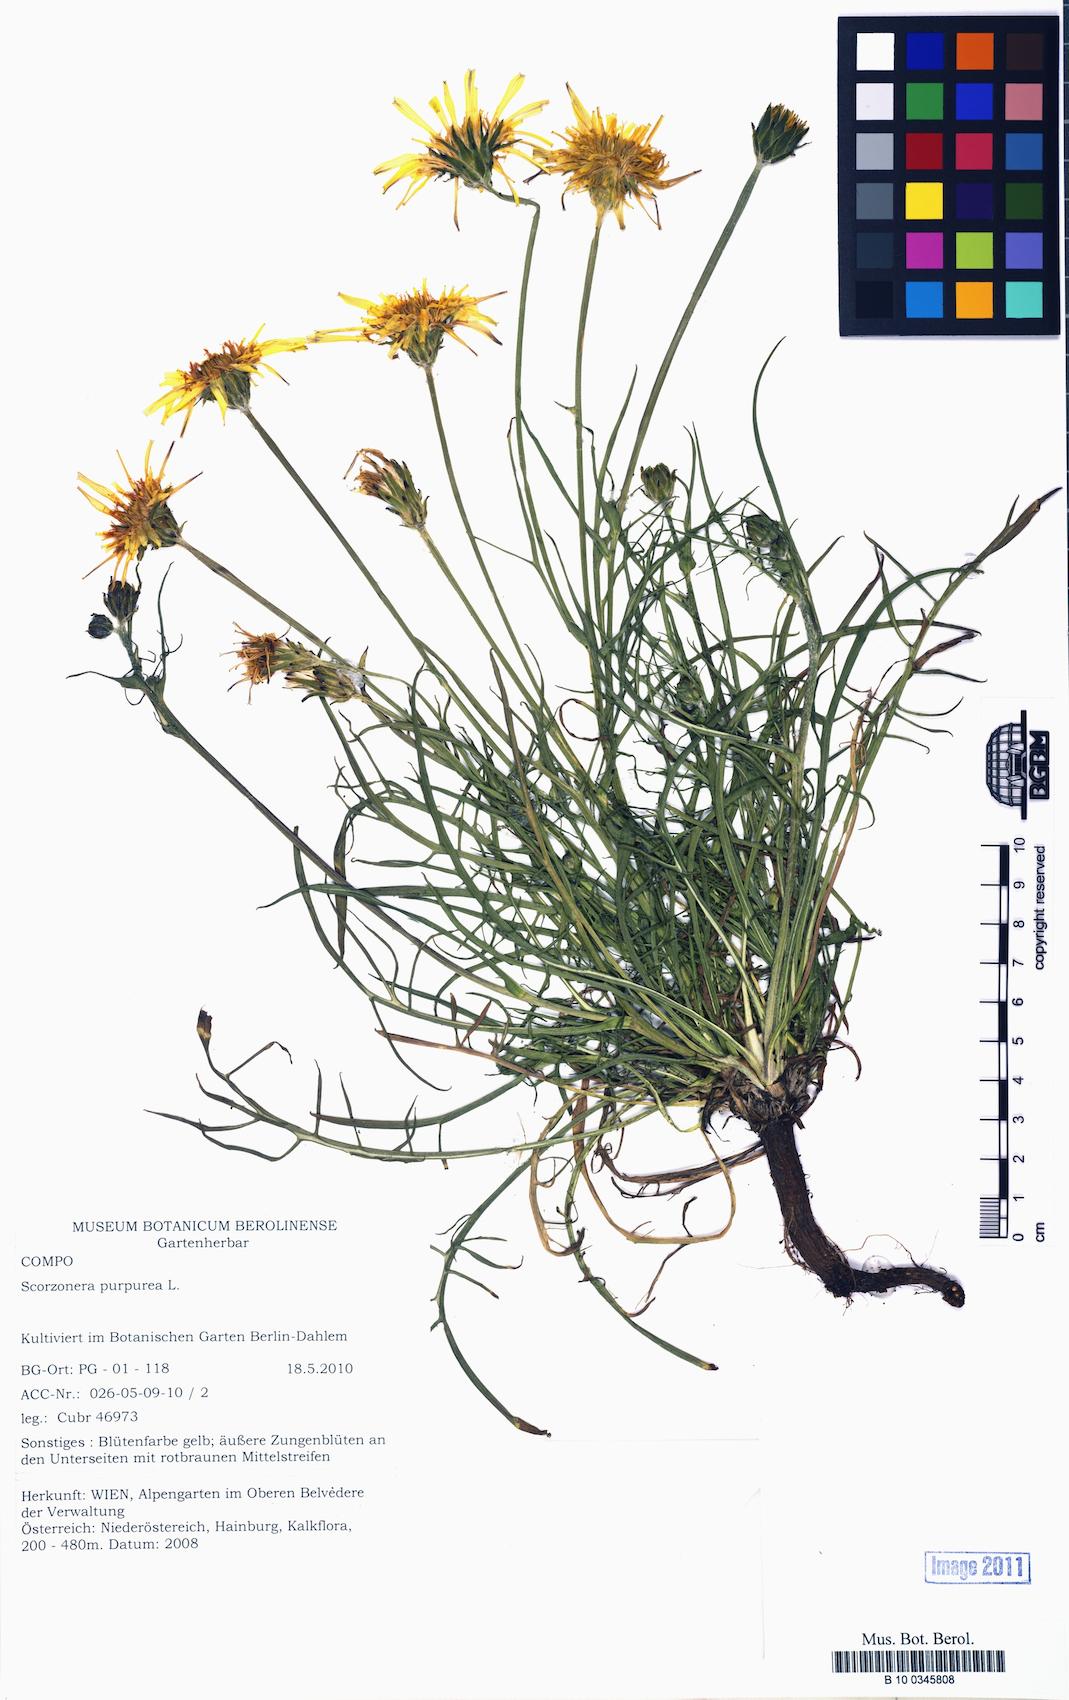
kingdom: Plantae
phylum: Tracheophyta
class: Magnoliopsida
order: Asterales
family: Asteraceae
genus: Scorzonera
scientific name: Scorzonera
